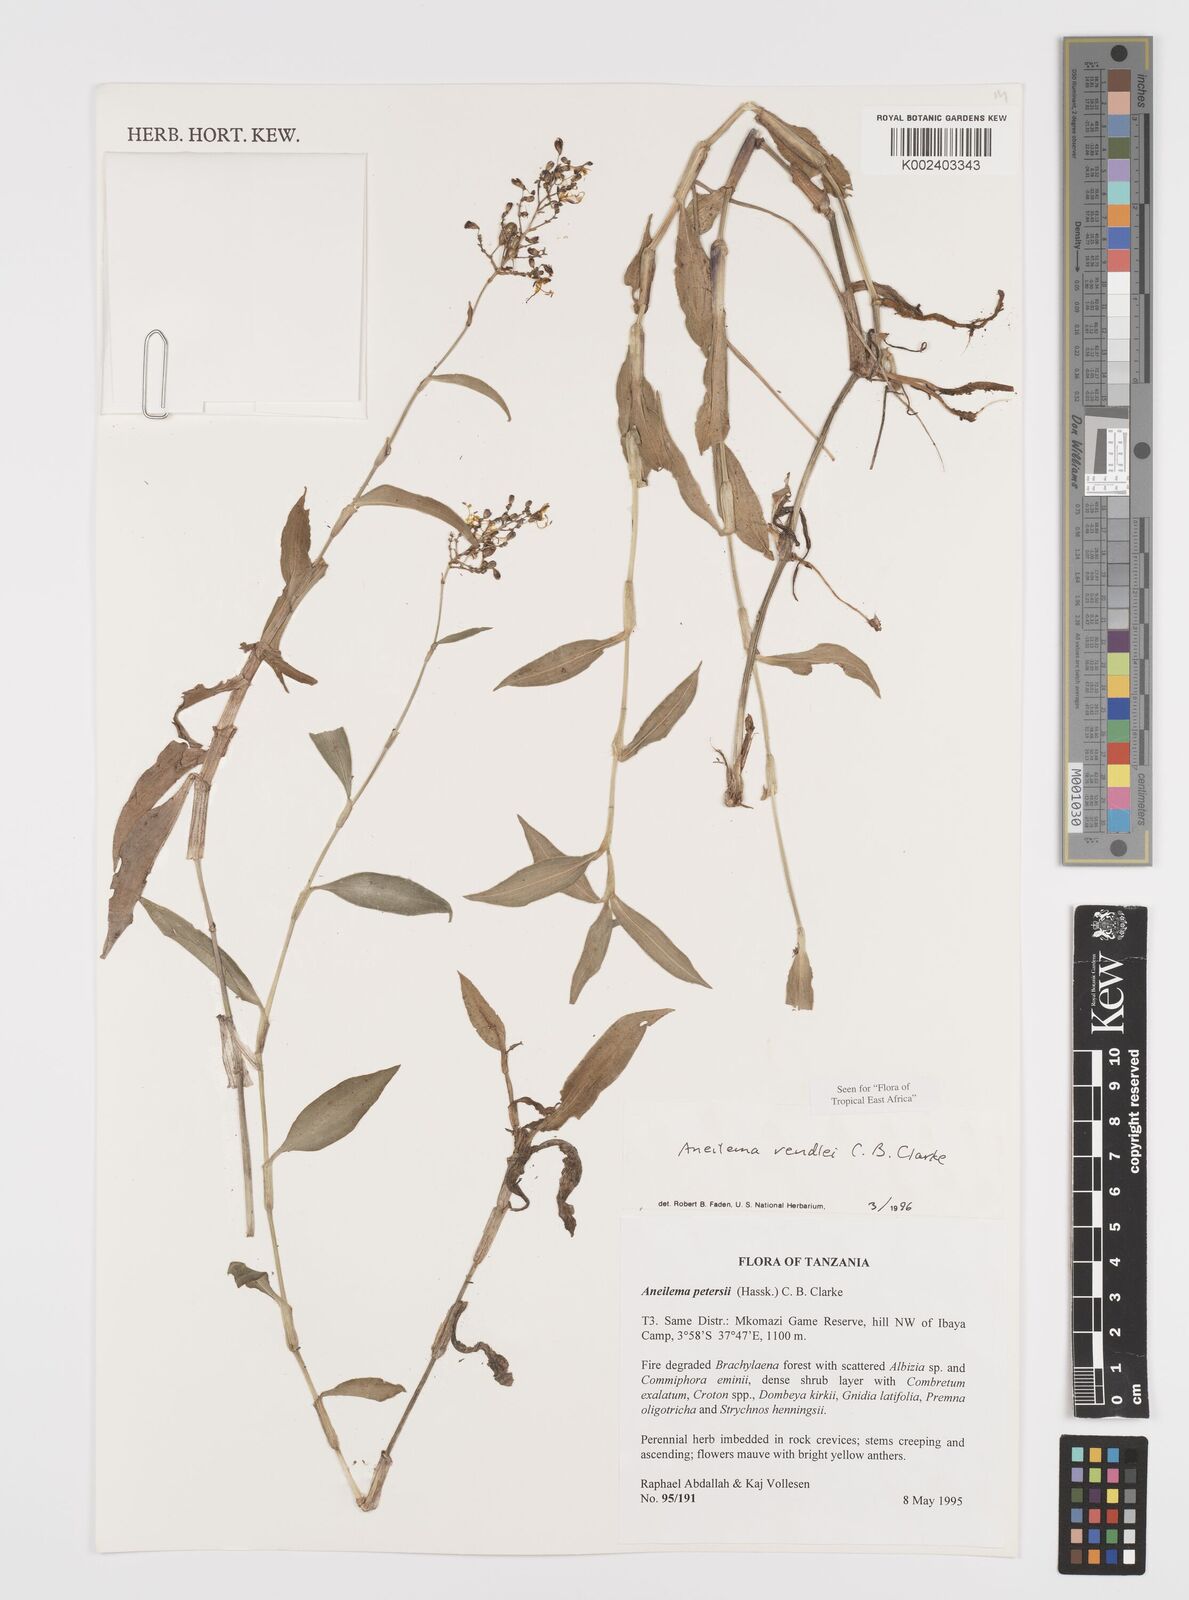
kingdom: Plantae
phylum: Tracheophyta
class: Liliopsida
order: Commelinales
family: Commelinaceae
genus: Aneilema
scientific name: Aneilema rendlei
